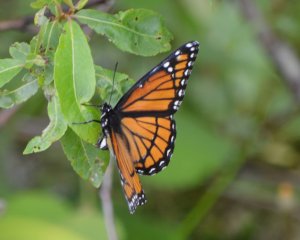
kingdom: Animalia
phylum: Arthropoda
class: Insecta
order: Lepidoptera
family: Nymphalidae
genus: Limenitis
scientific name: Limenitis archippus
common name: Viceroy
